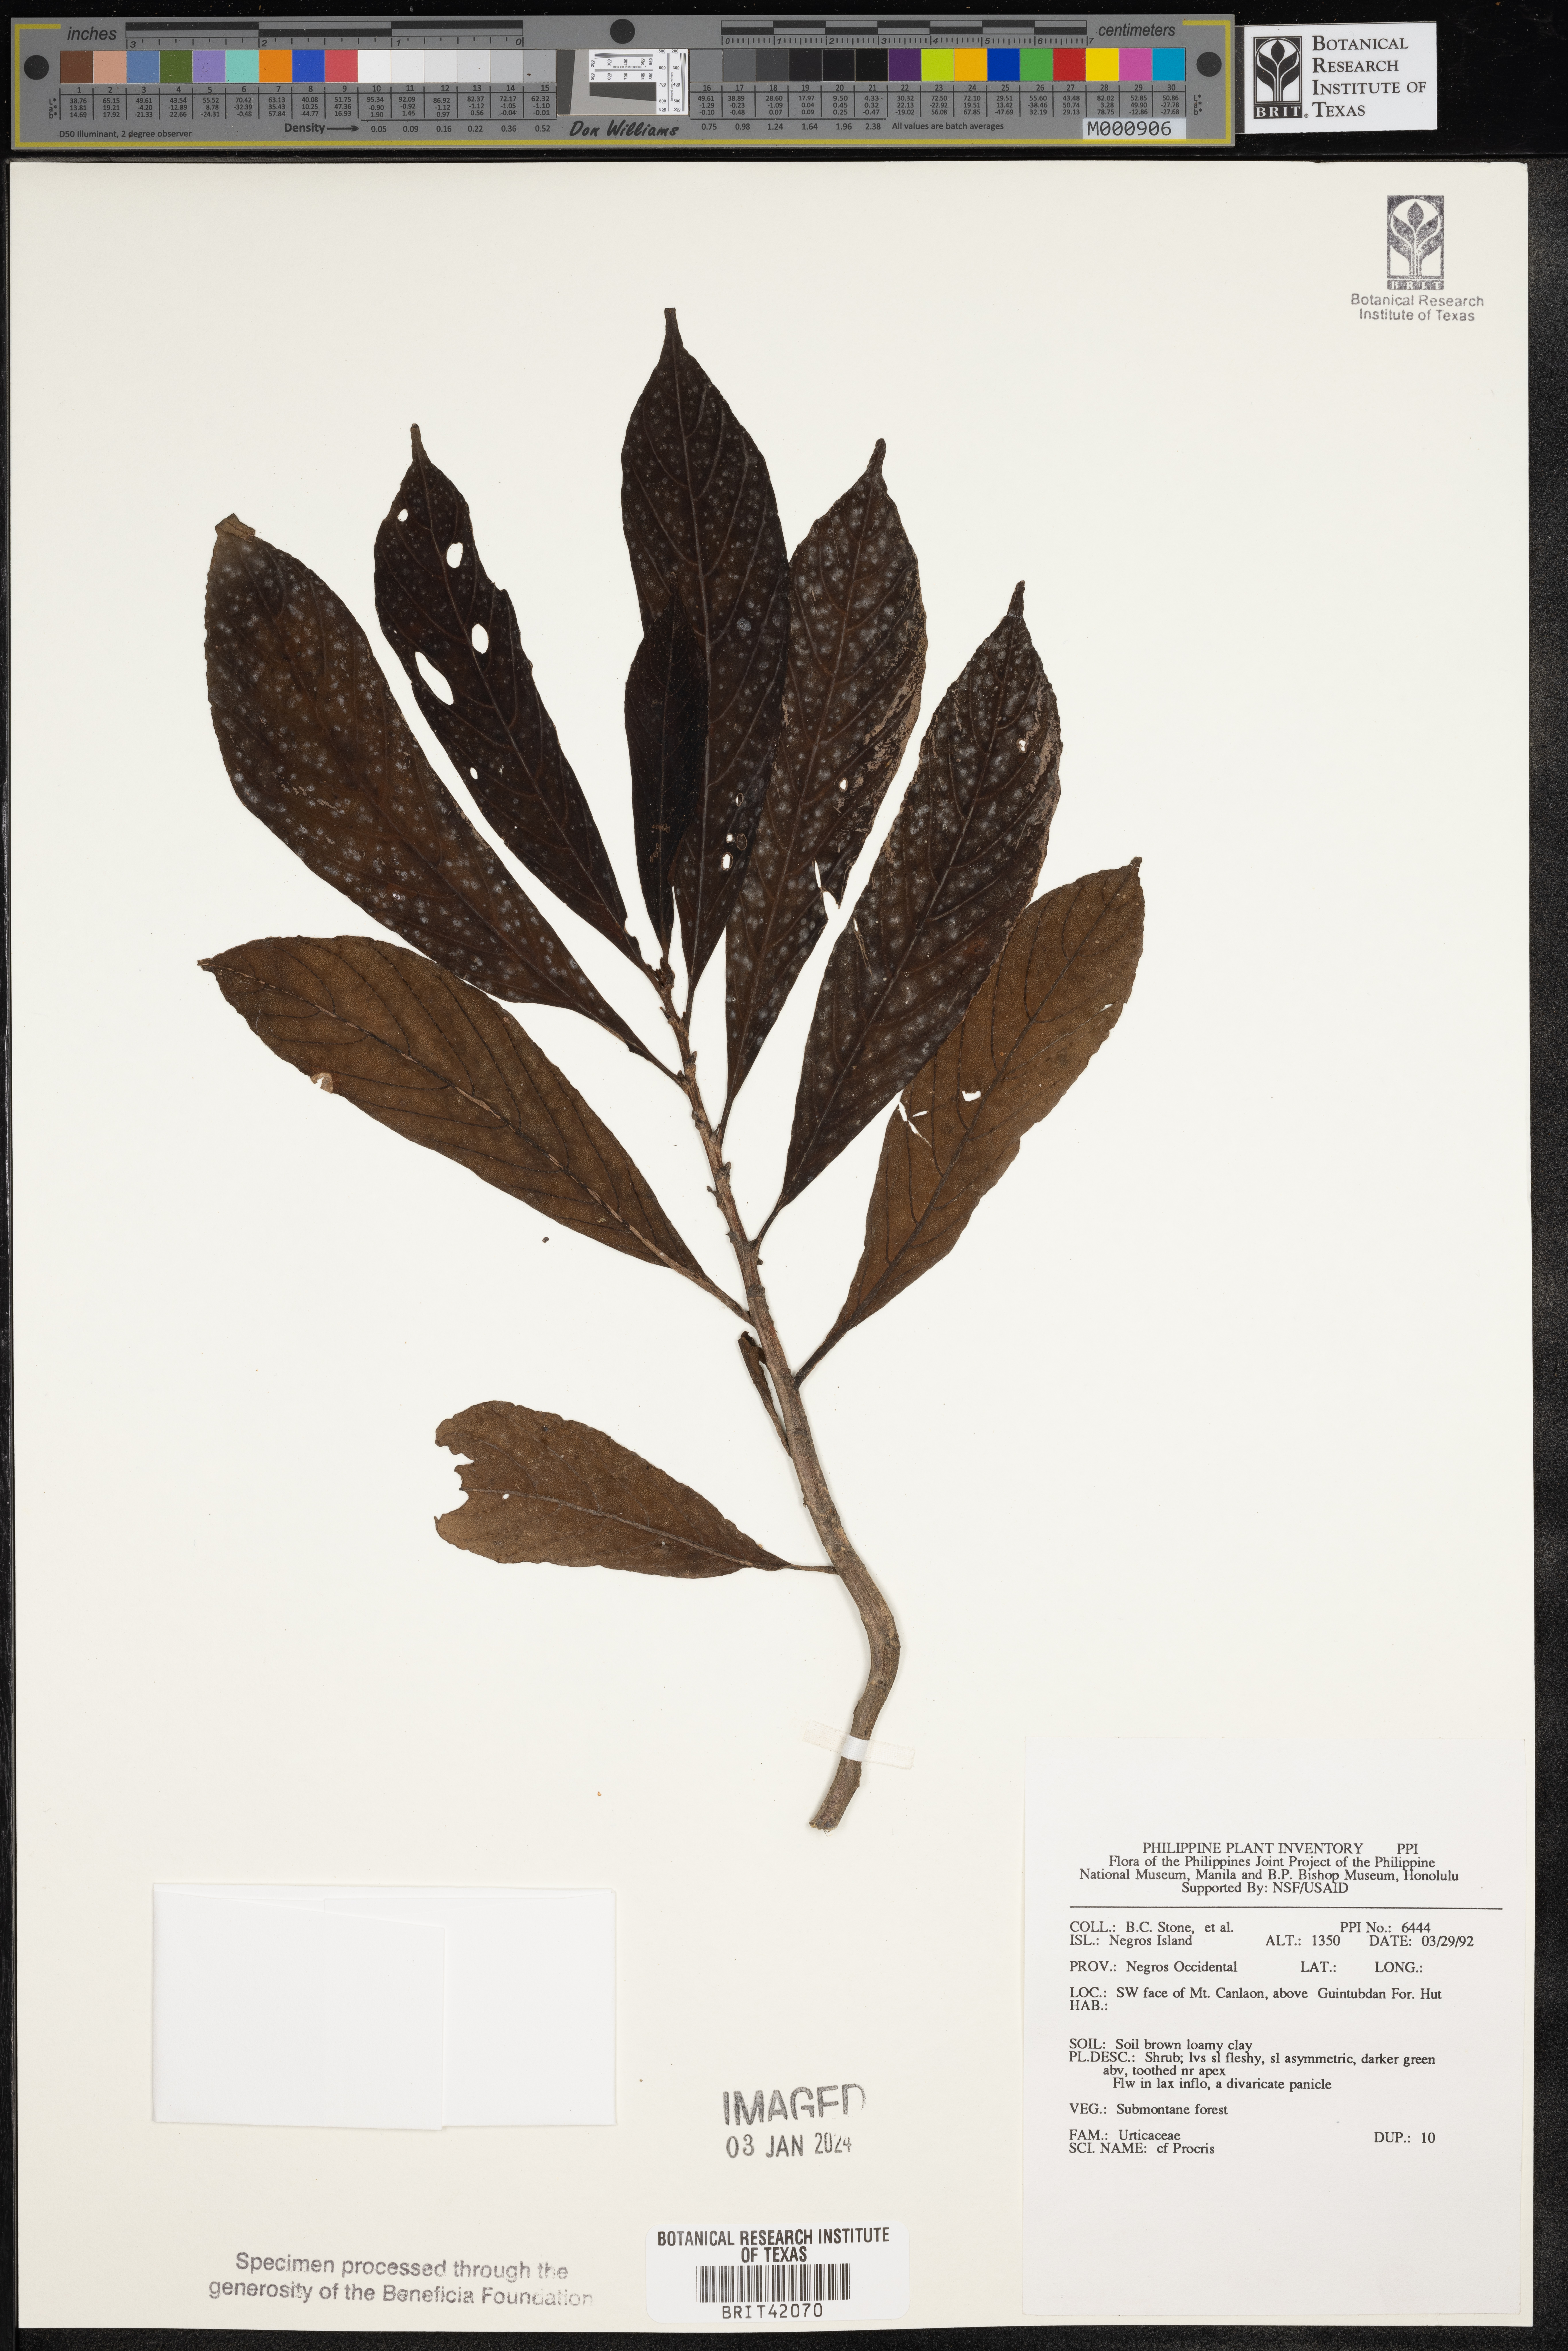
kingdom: Plantae
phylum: Tracheophyta
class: Magnoliopsida
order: Rosales
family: Urticaceae
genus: Procris
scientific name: Procris
